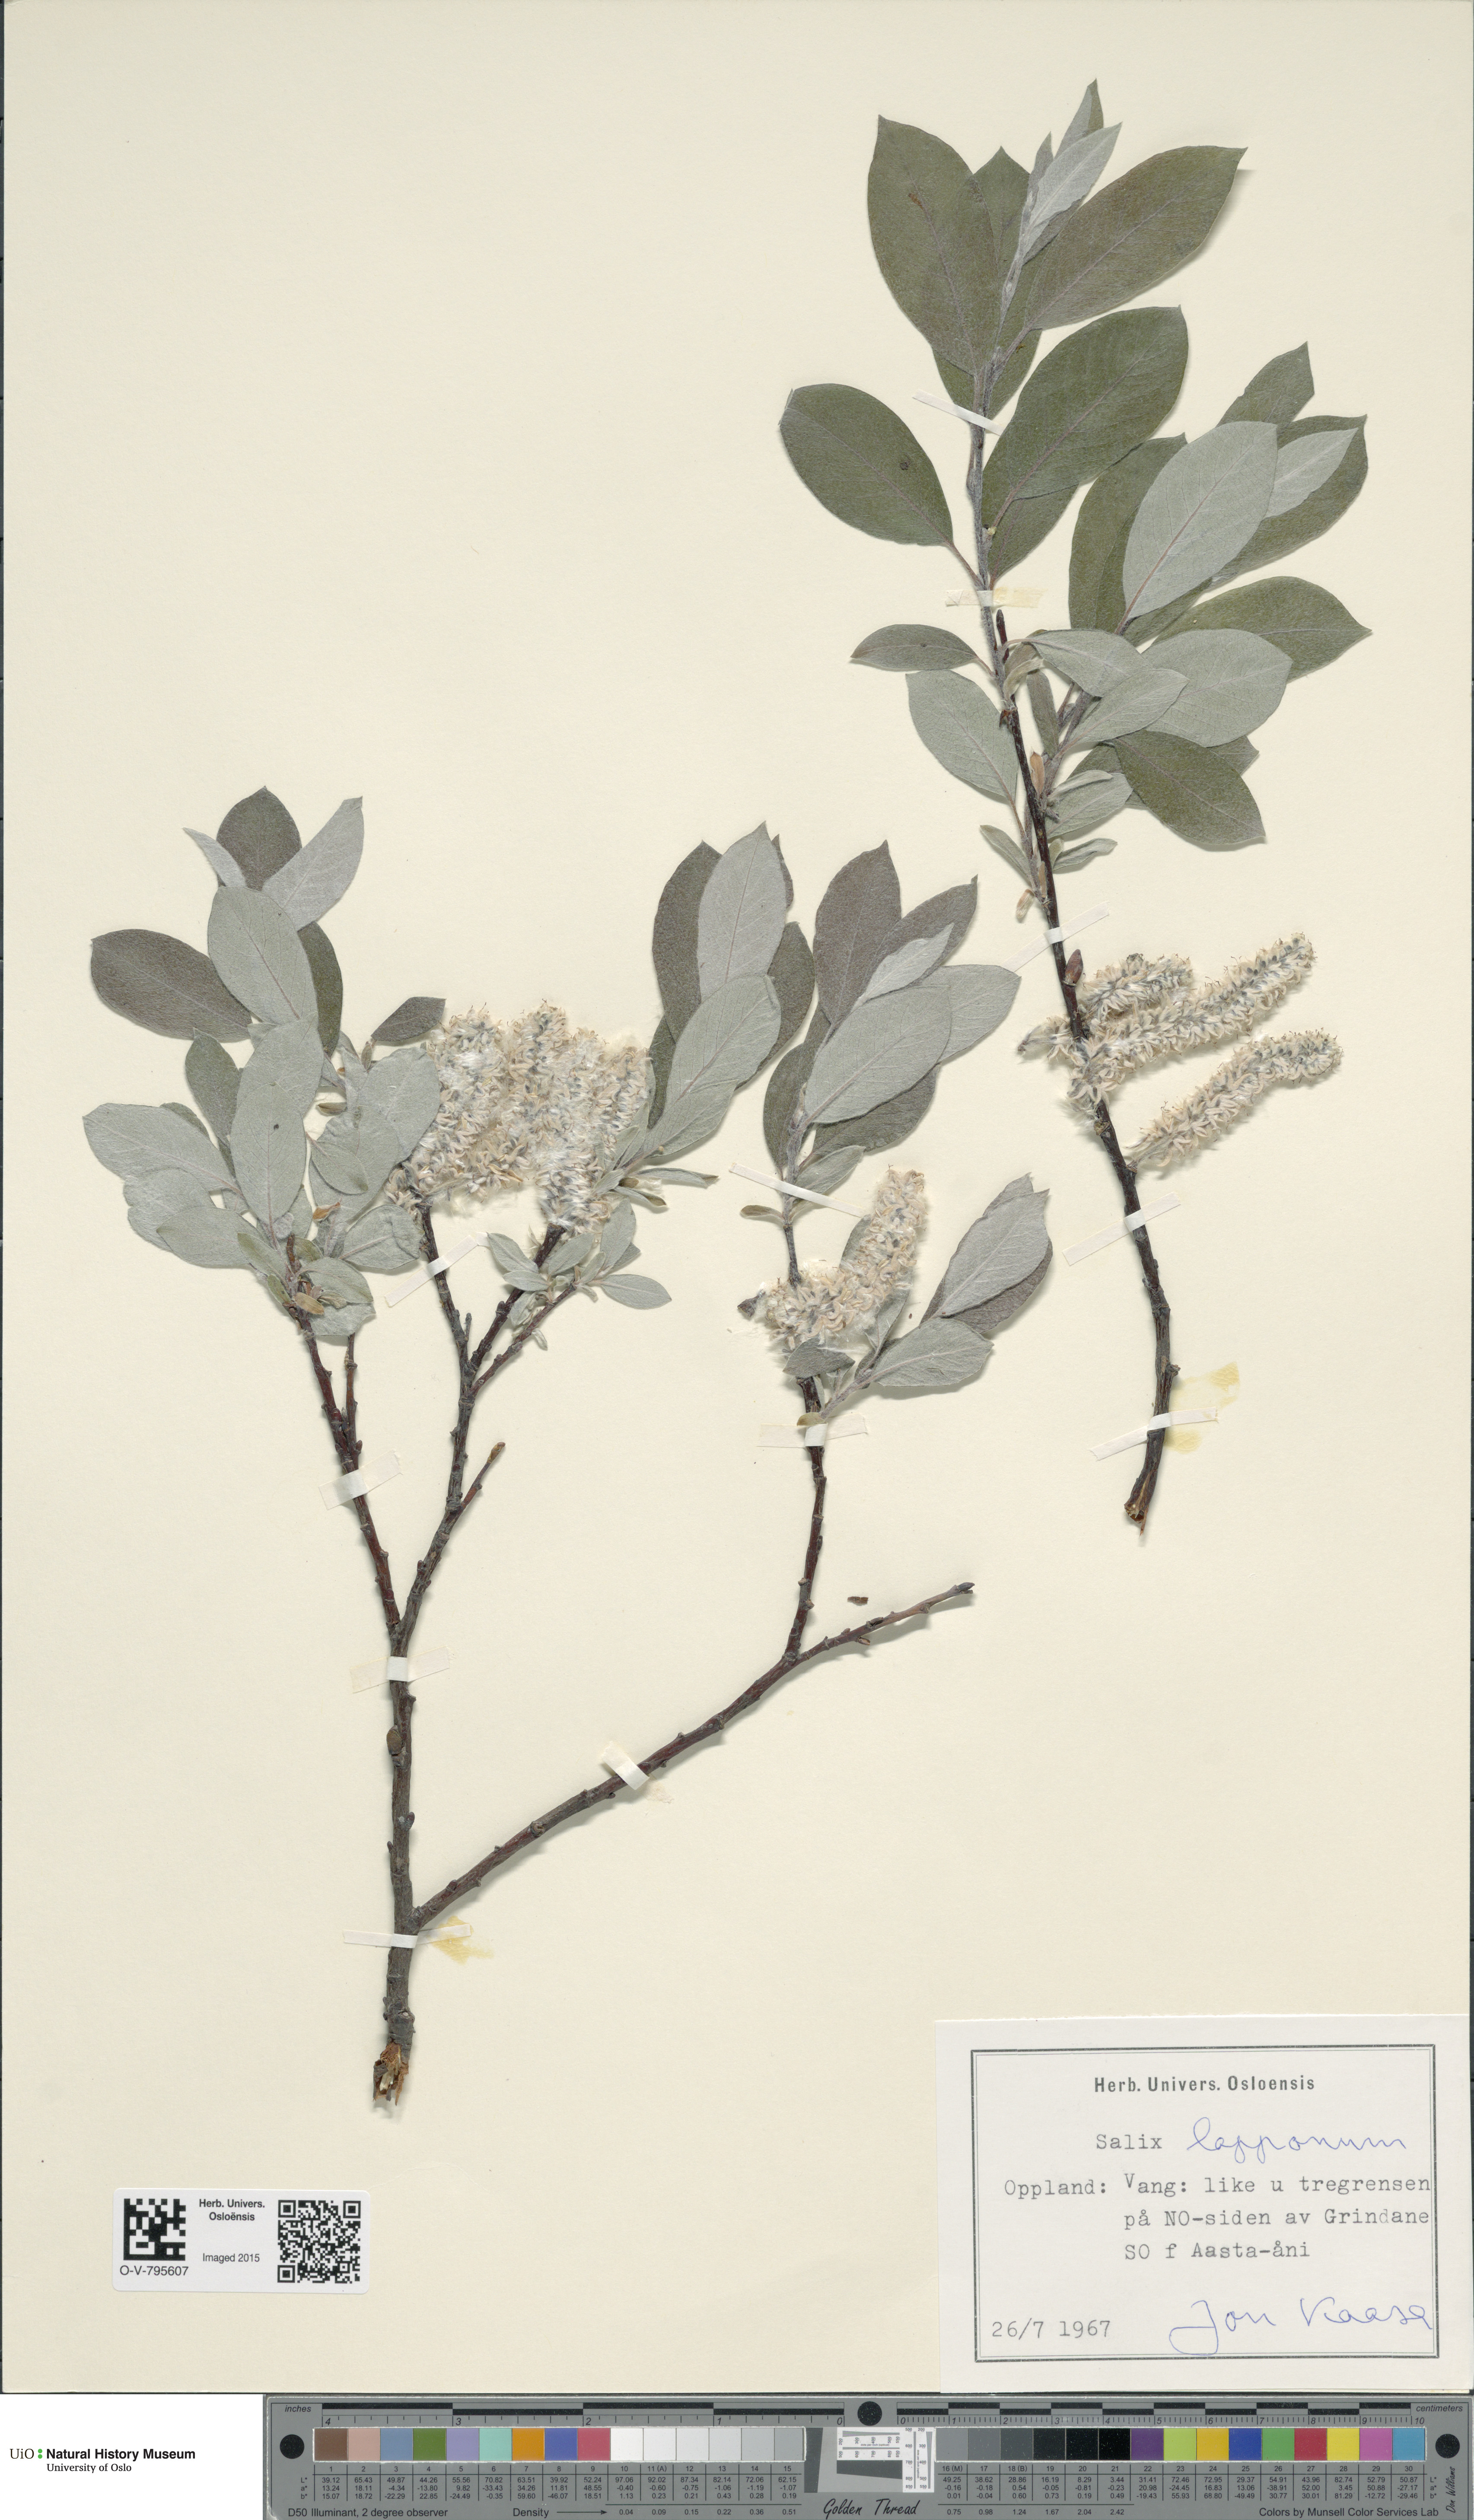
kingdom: Plantae
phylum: Tracheophyta
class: Magnoliopsida
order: Malpighiales
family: Salicaceae
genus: Salix
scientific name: Salix lapponum
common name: Downy willow
